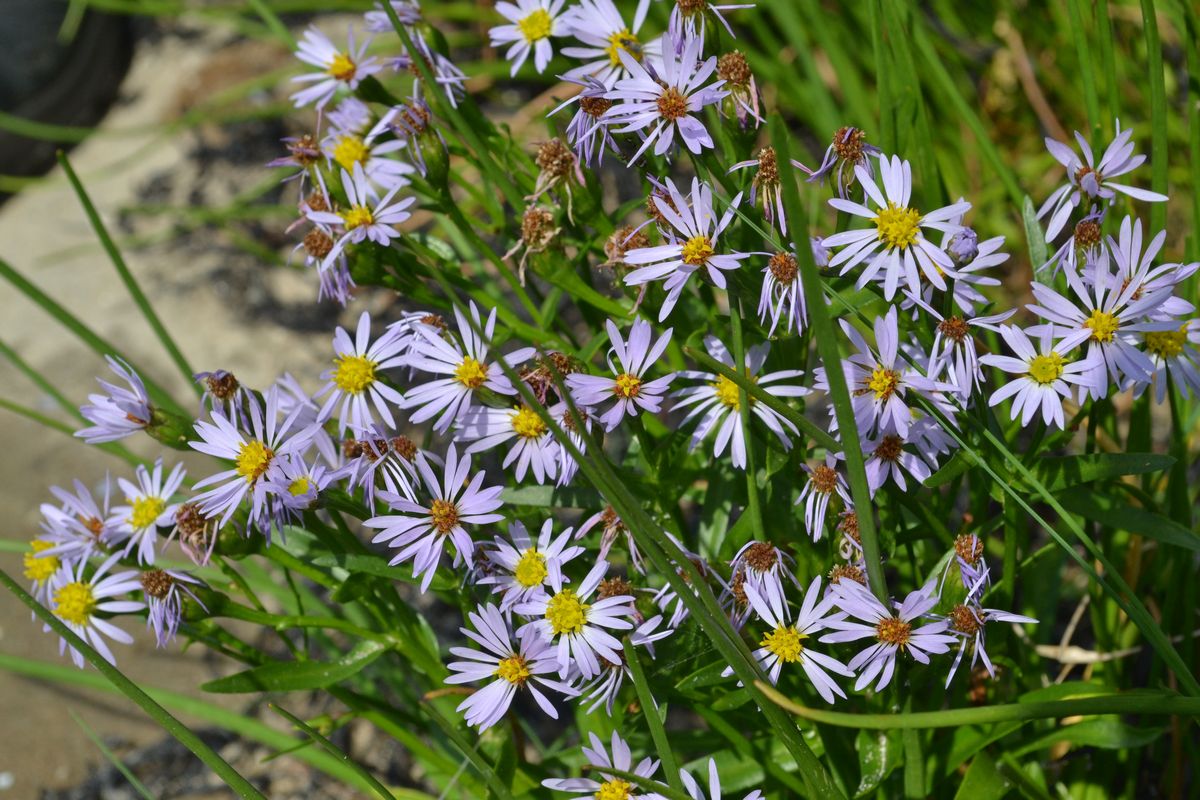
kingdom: Plantae
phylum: Tracheophyta
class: Magnoliopsida
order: Asterales
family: Asteraceae
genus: Tripolium
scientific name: Tripolium pannonicum
